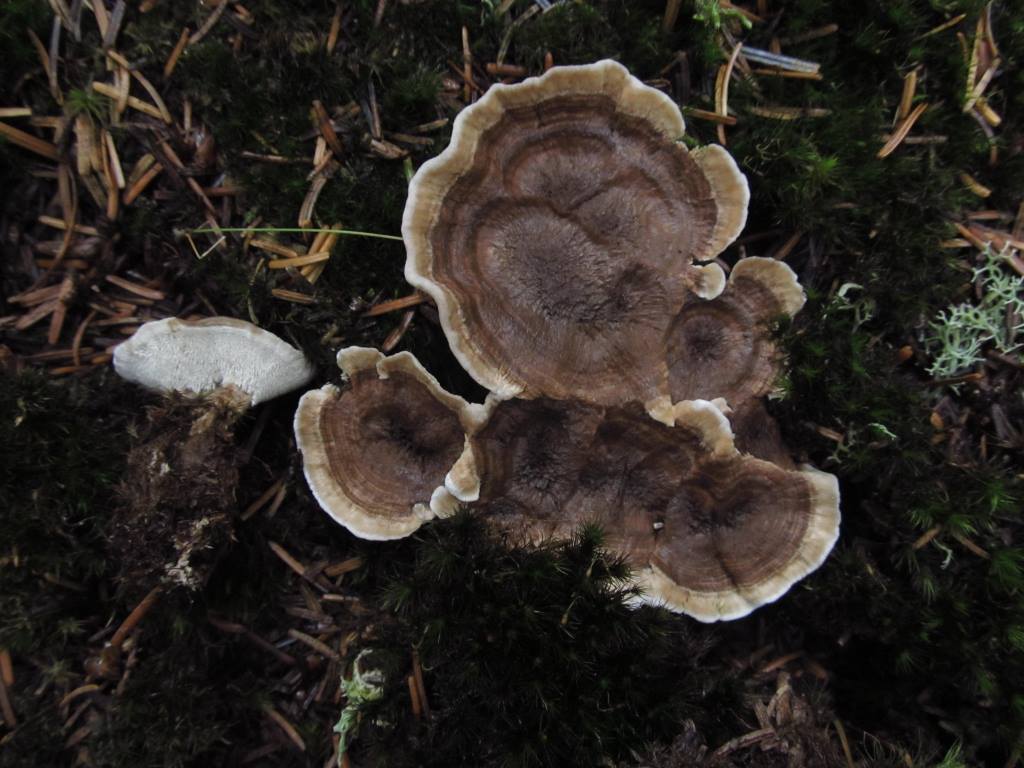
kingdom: Fungi
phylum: Basidiomycota
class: Agaricomycetes
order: Thelephorales
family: Thelephoraceae
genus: Phellodon
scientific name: Phellodon tomentosus
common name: tragtformet duftpigsvamp
